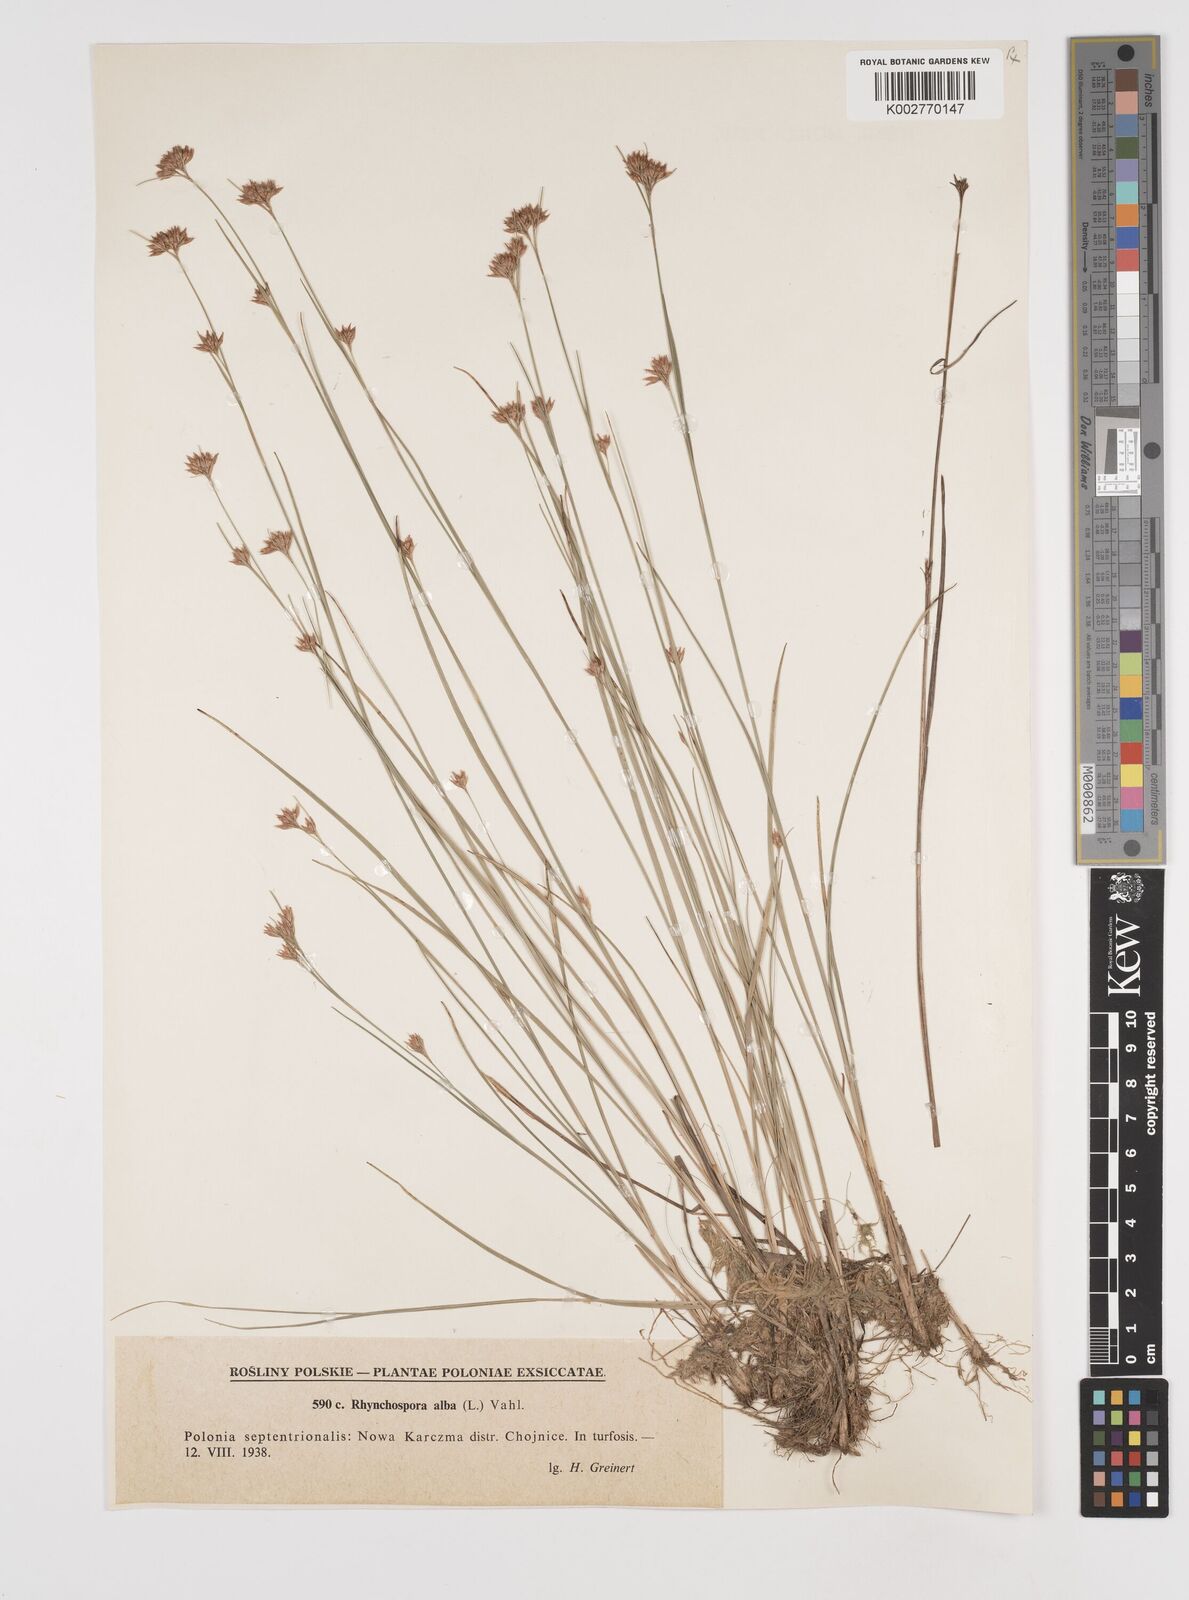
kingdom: Plantae
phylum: Tracheophyta
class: Liliopsida
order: Poales
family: Cyperaceae
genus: Rhynchospora
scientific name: Rhynchospora alba
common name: White beak-sedge
